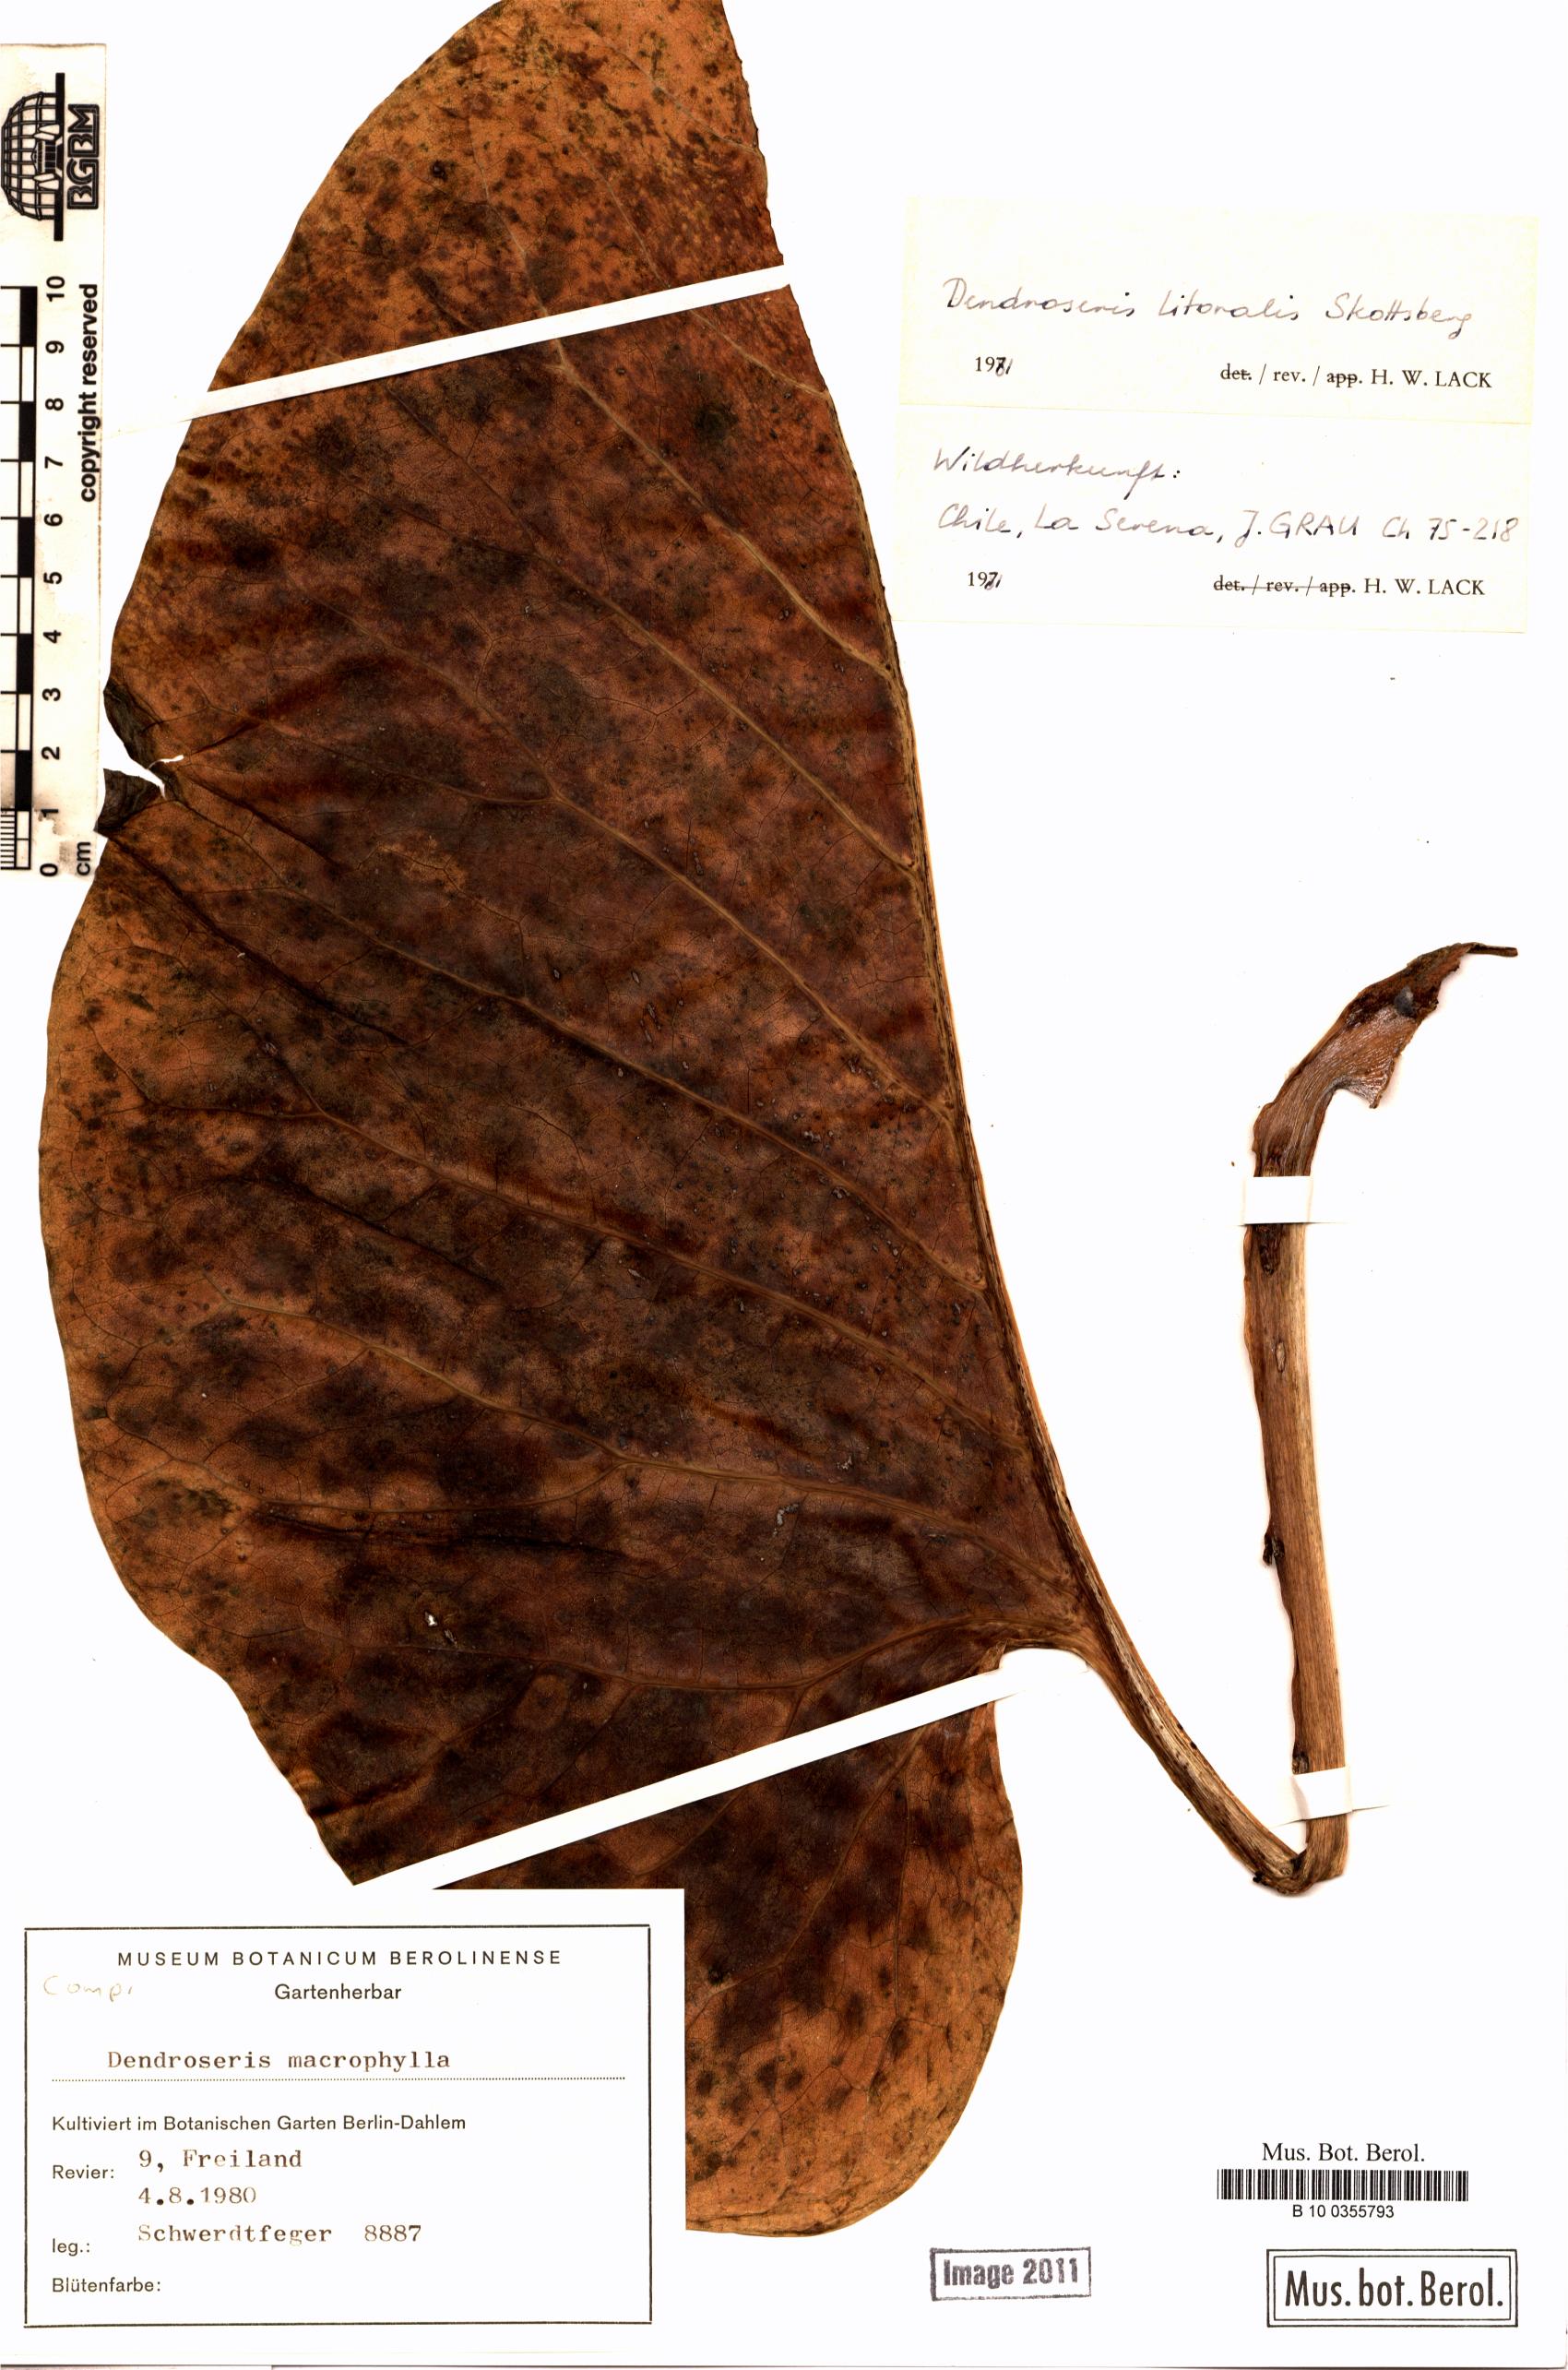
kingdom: Plantae
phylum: Tracheophyta
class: Magnoliopsida
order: Asterales
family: Asteraceae
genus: Sonchus
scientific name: Sonchus brassicifolius
